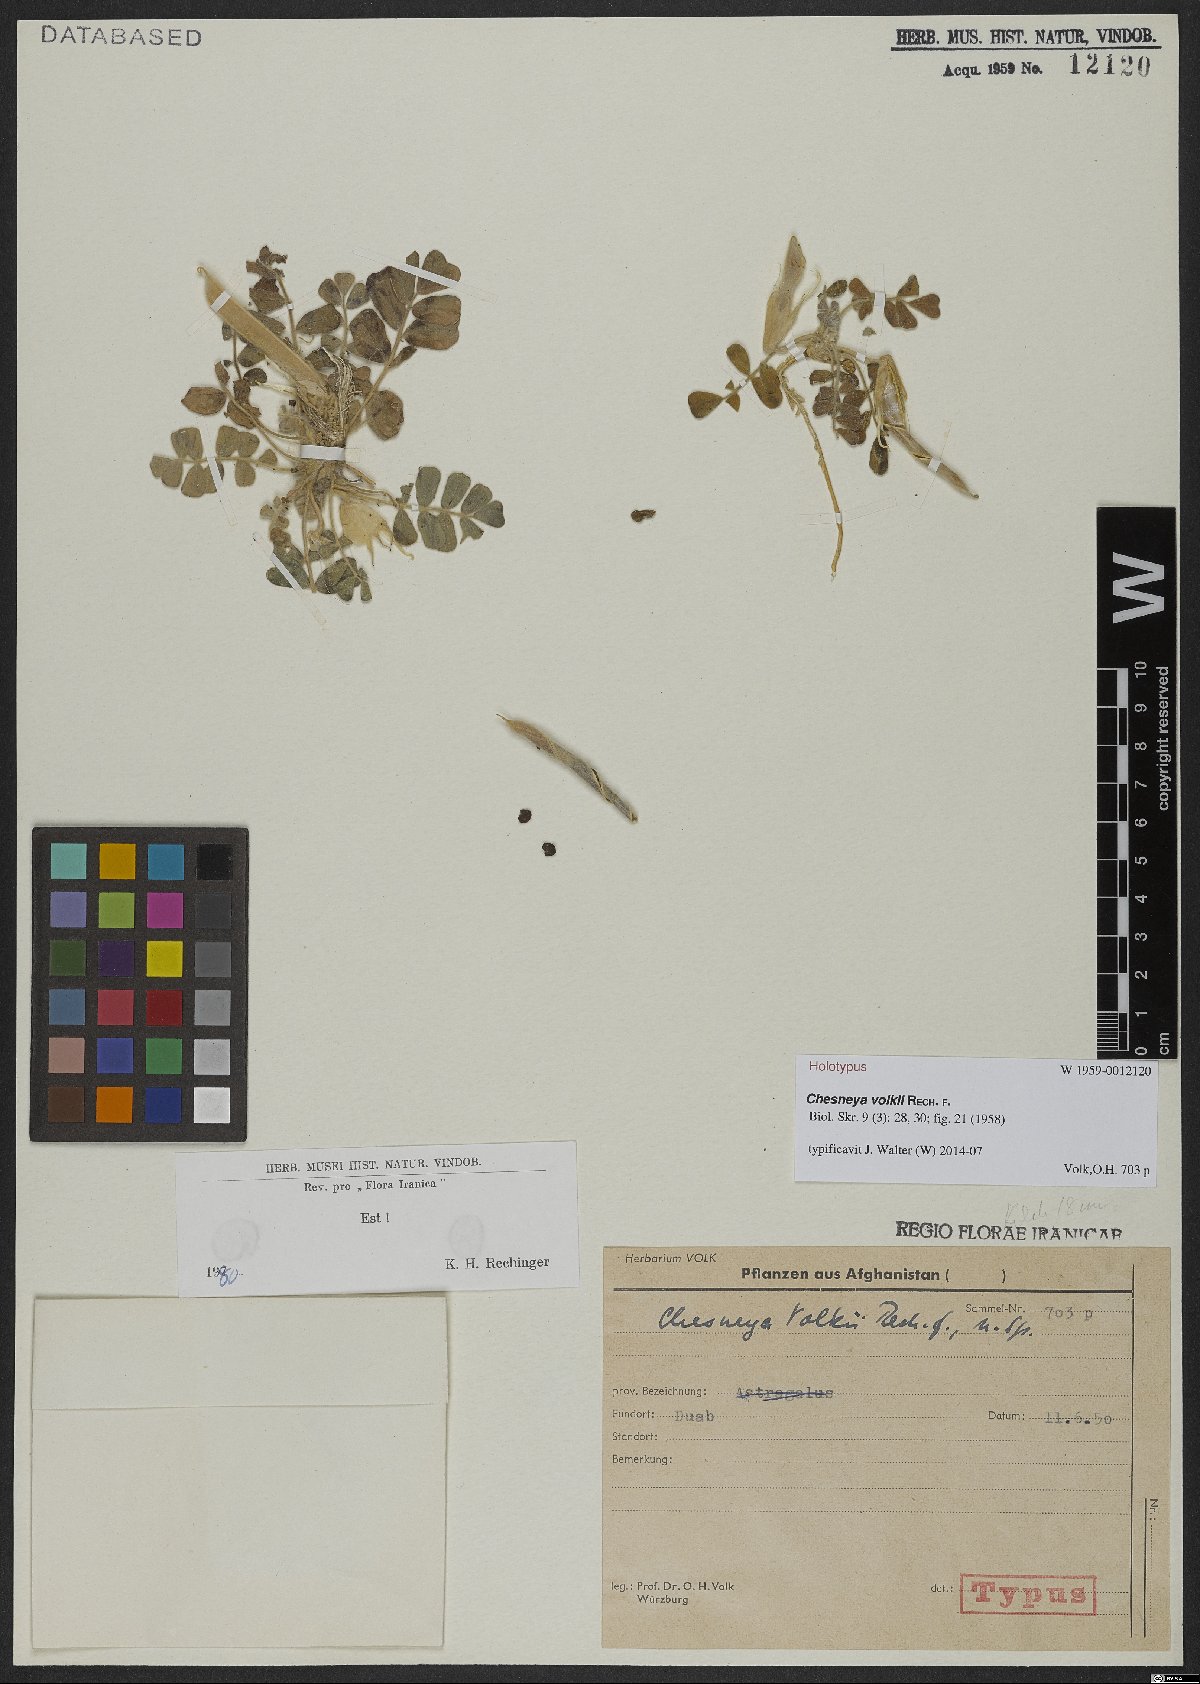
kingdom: Plantae
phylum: Tracheophyta
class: Magnoliopsida
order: Fabales
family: Fabaceae
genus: Chesneya
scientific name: Chesneya volkii
